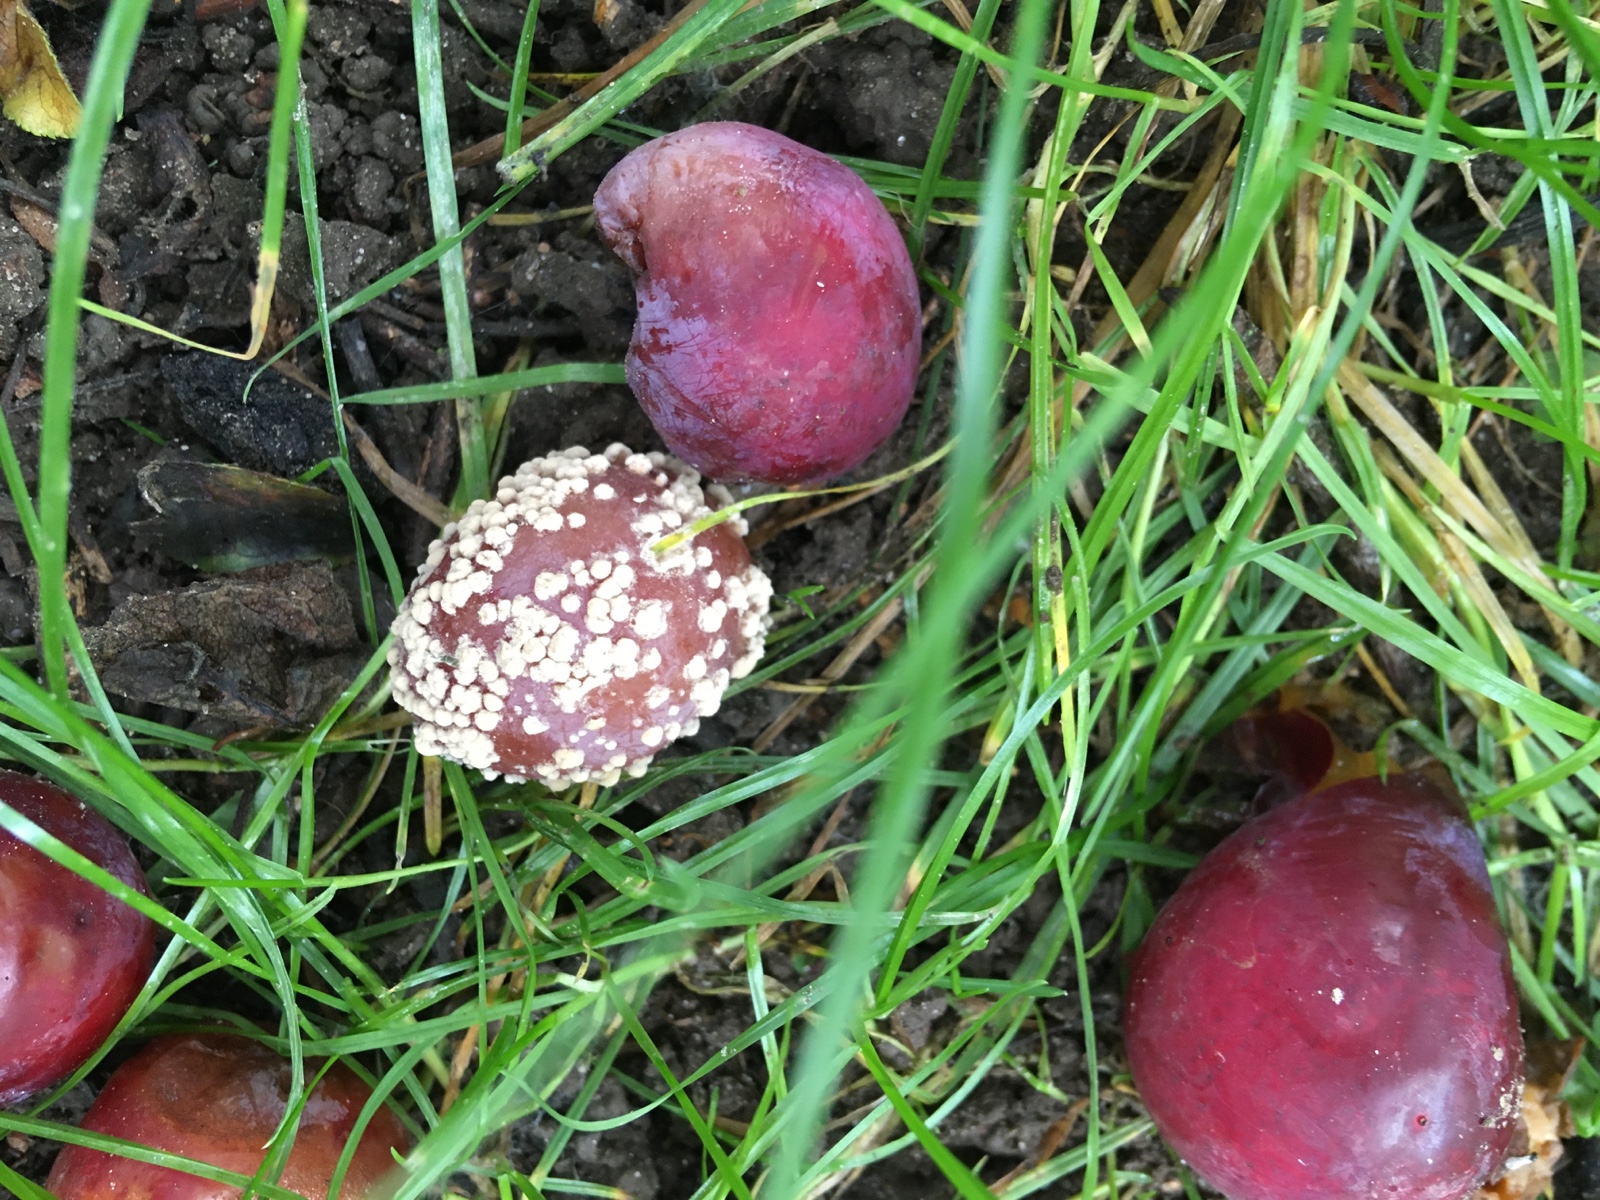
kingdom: Fungi
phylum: Ascomycota
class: Leotiomycetes
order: Helotiales
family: Sclerotiniaceae
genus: Monilinia
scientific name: Monilinia laxa
